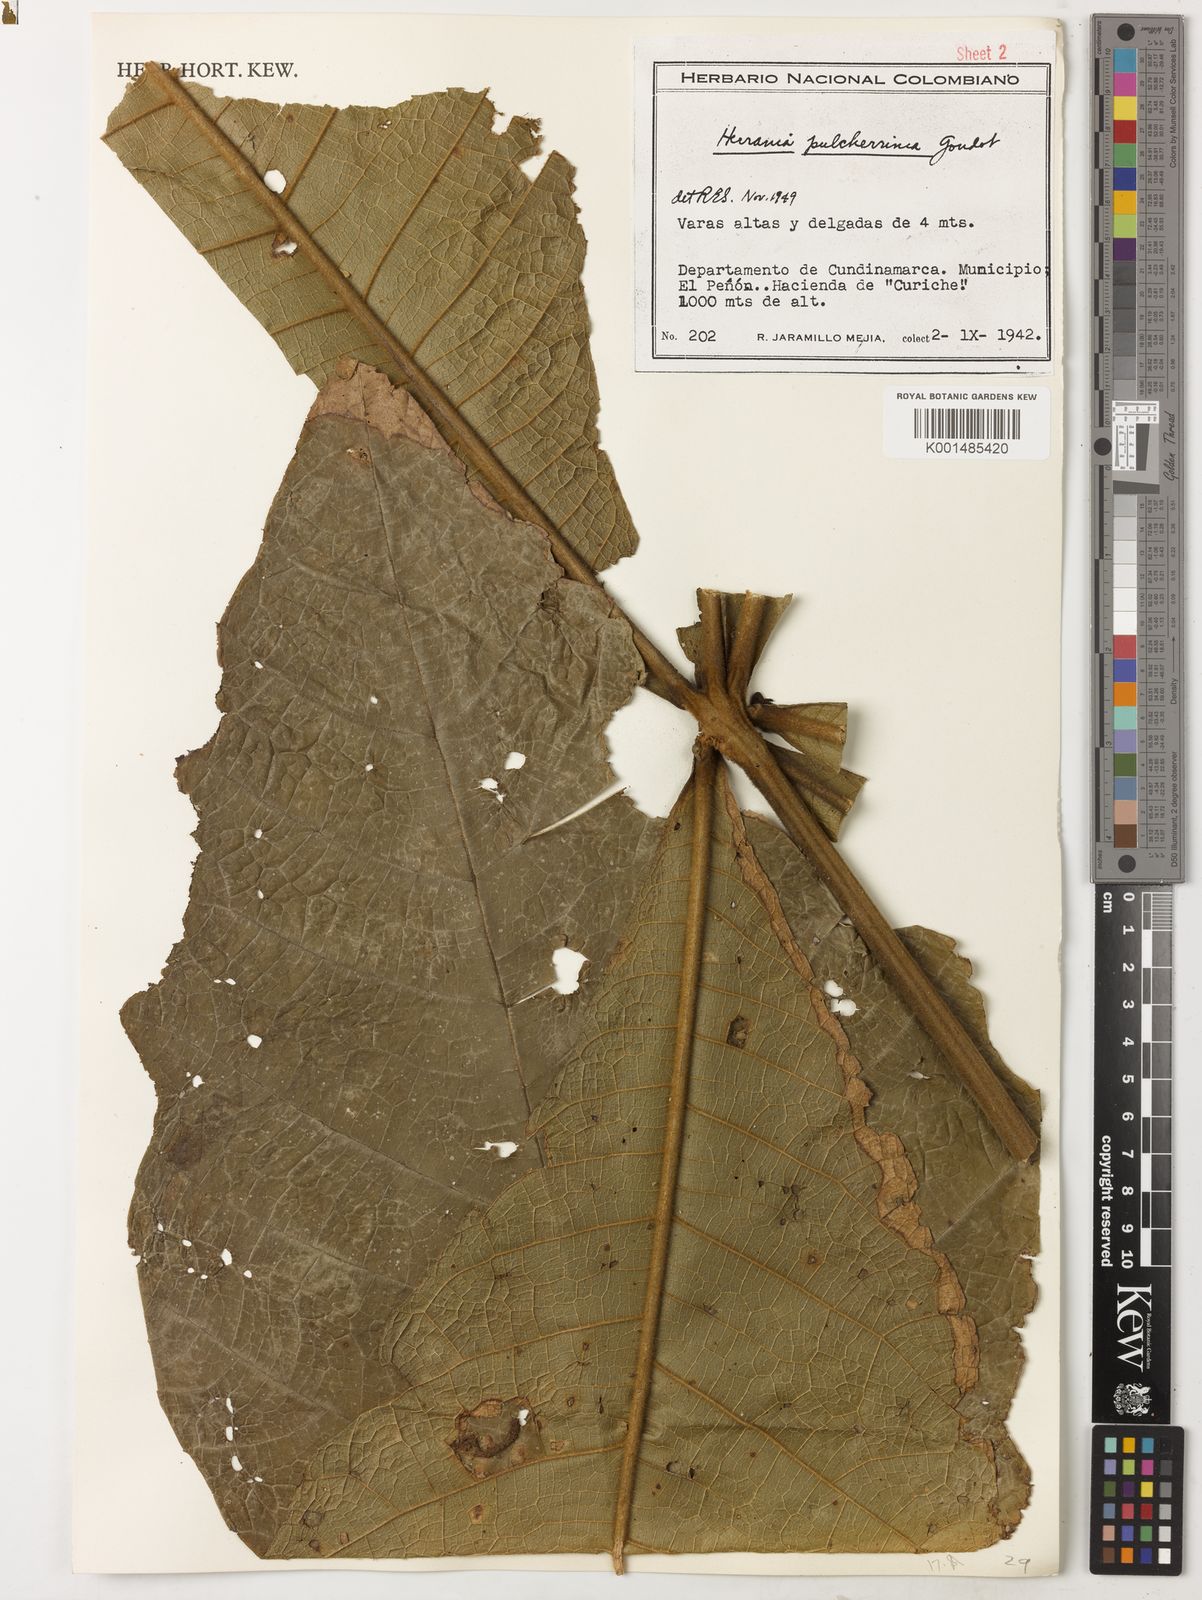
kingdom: Plantae
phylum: Tracheophyta
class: Magnoliopsida
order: Malvales
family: Malvaceae
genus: Herrania
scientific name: Herrania pulcherrima
